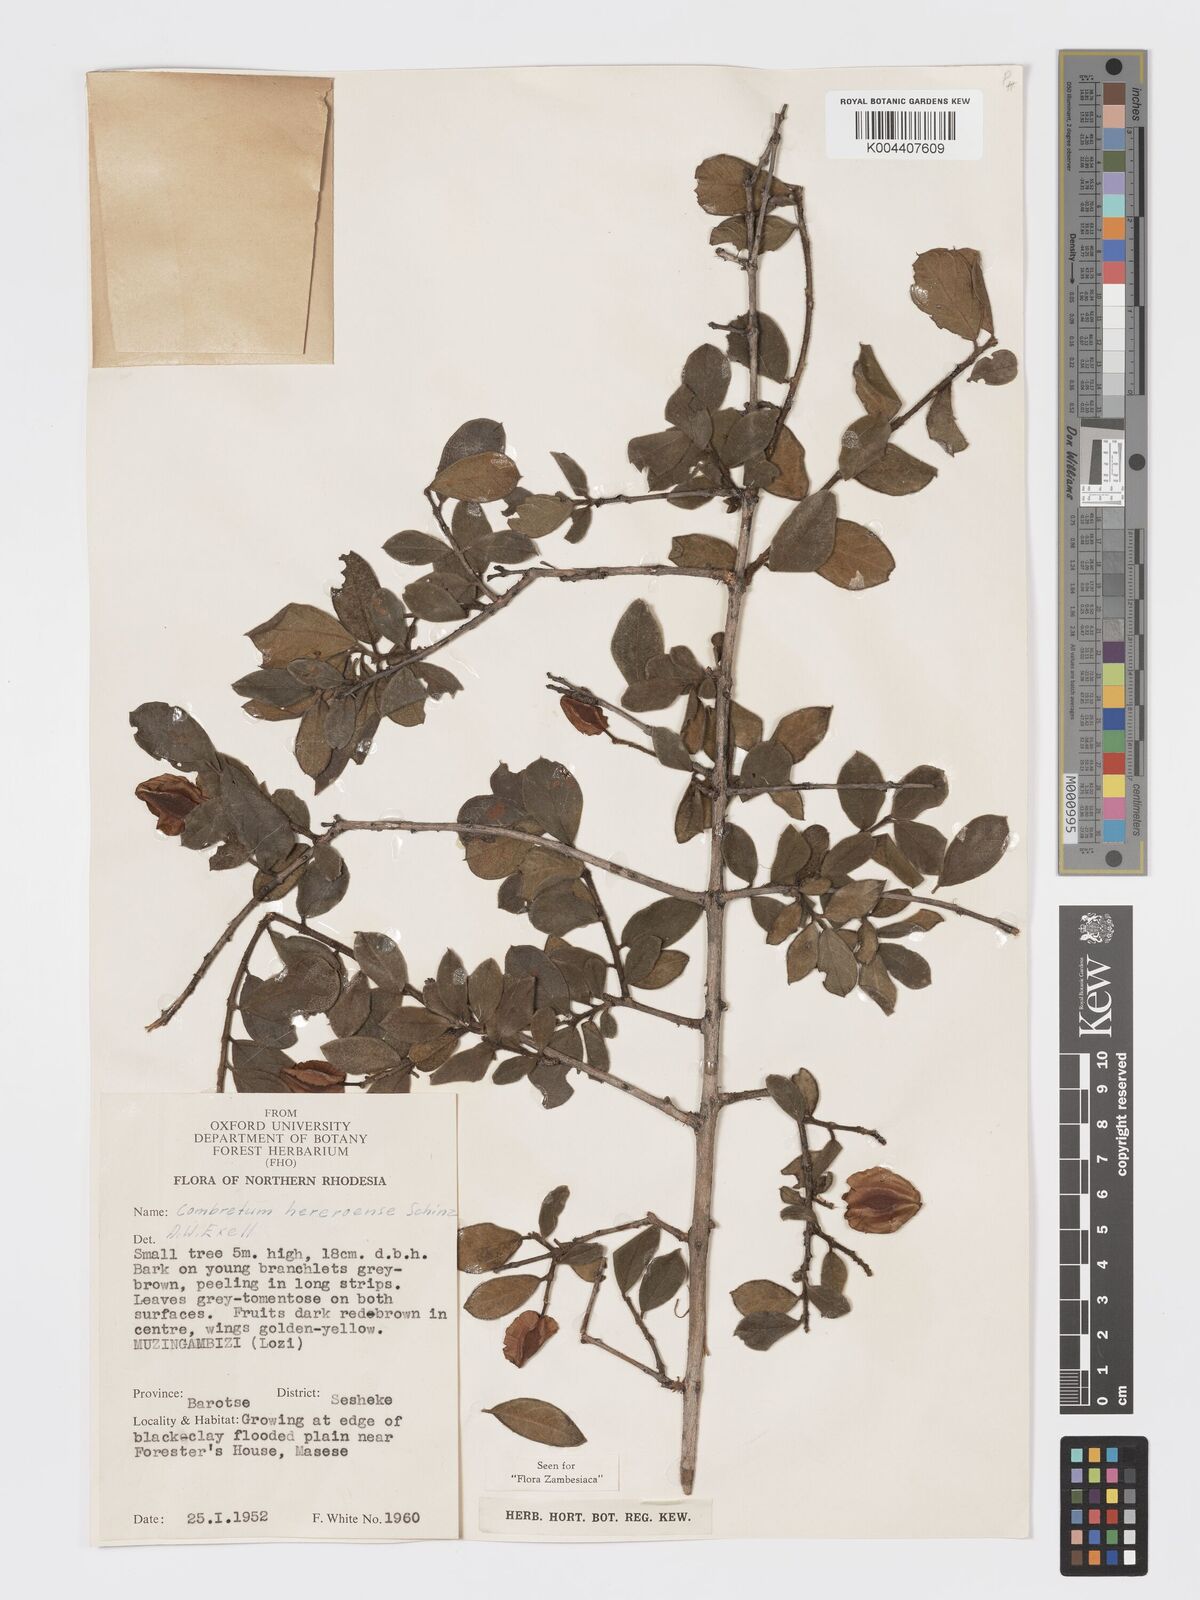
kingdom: Plantae
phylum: Tracheophyta
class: Magnoliopsida
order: Myrtales
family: Combretaceae
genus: Combretum
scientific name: Combretum hereroense
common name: Russet bushwillow
